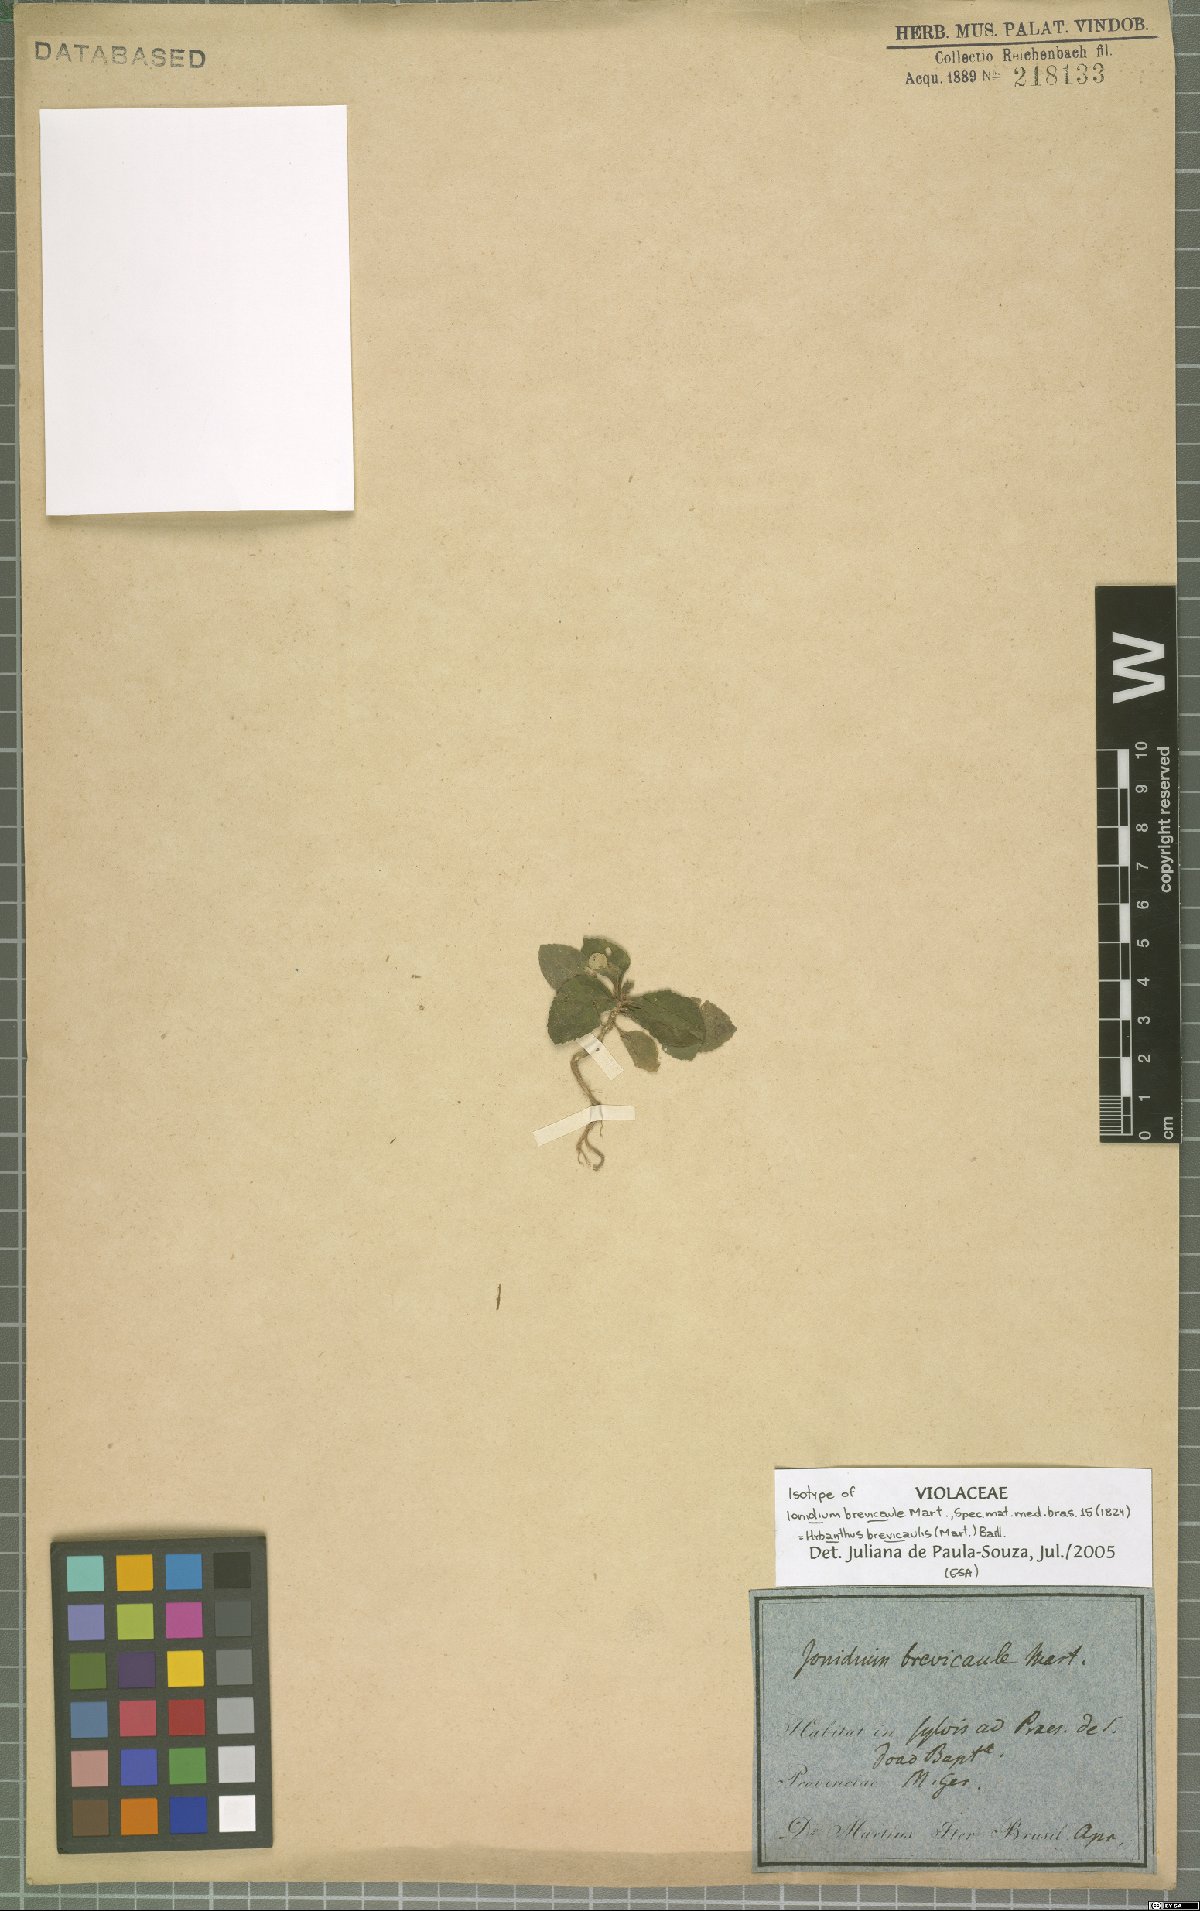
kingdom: Plantae
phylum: Tracheophyta
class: Magnoliopsida
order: Malpighiales
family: Violaceae
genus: Pombalia
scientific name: Pombalia brevicaulis
